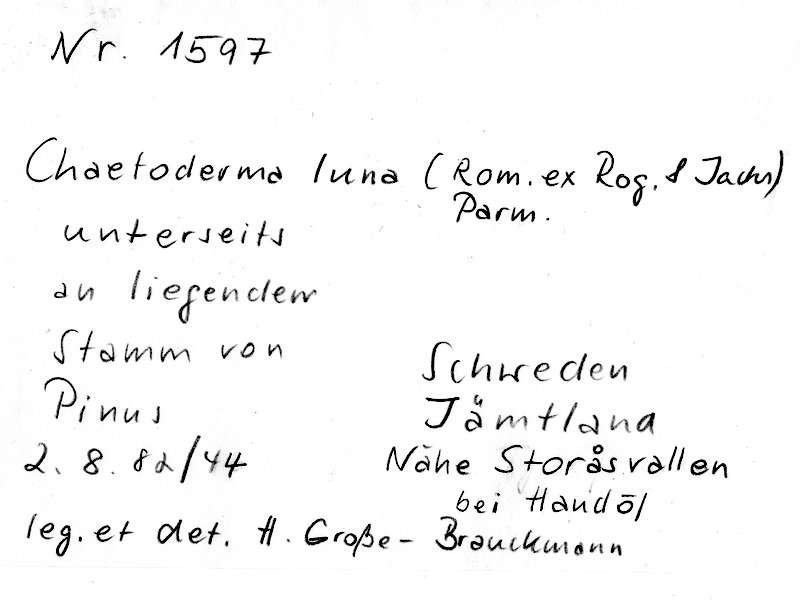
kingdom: Plantae
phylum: Tracheophyta
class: Pinopsida
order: Pinales
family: Pinaceae
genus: Pinus
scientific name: Pinus
